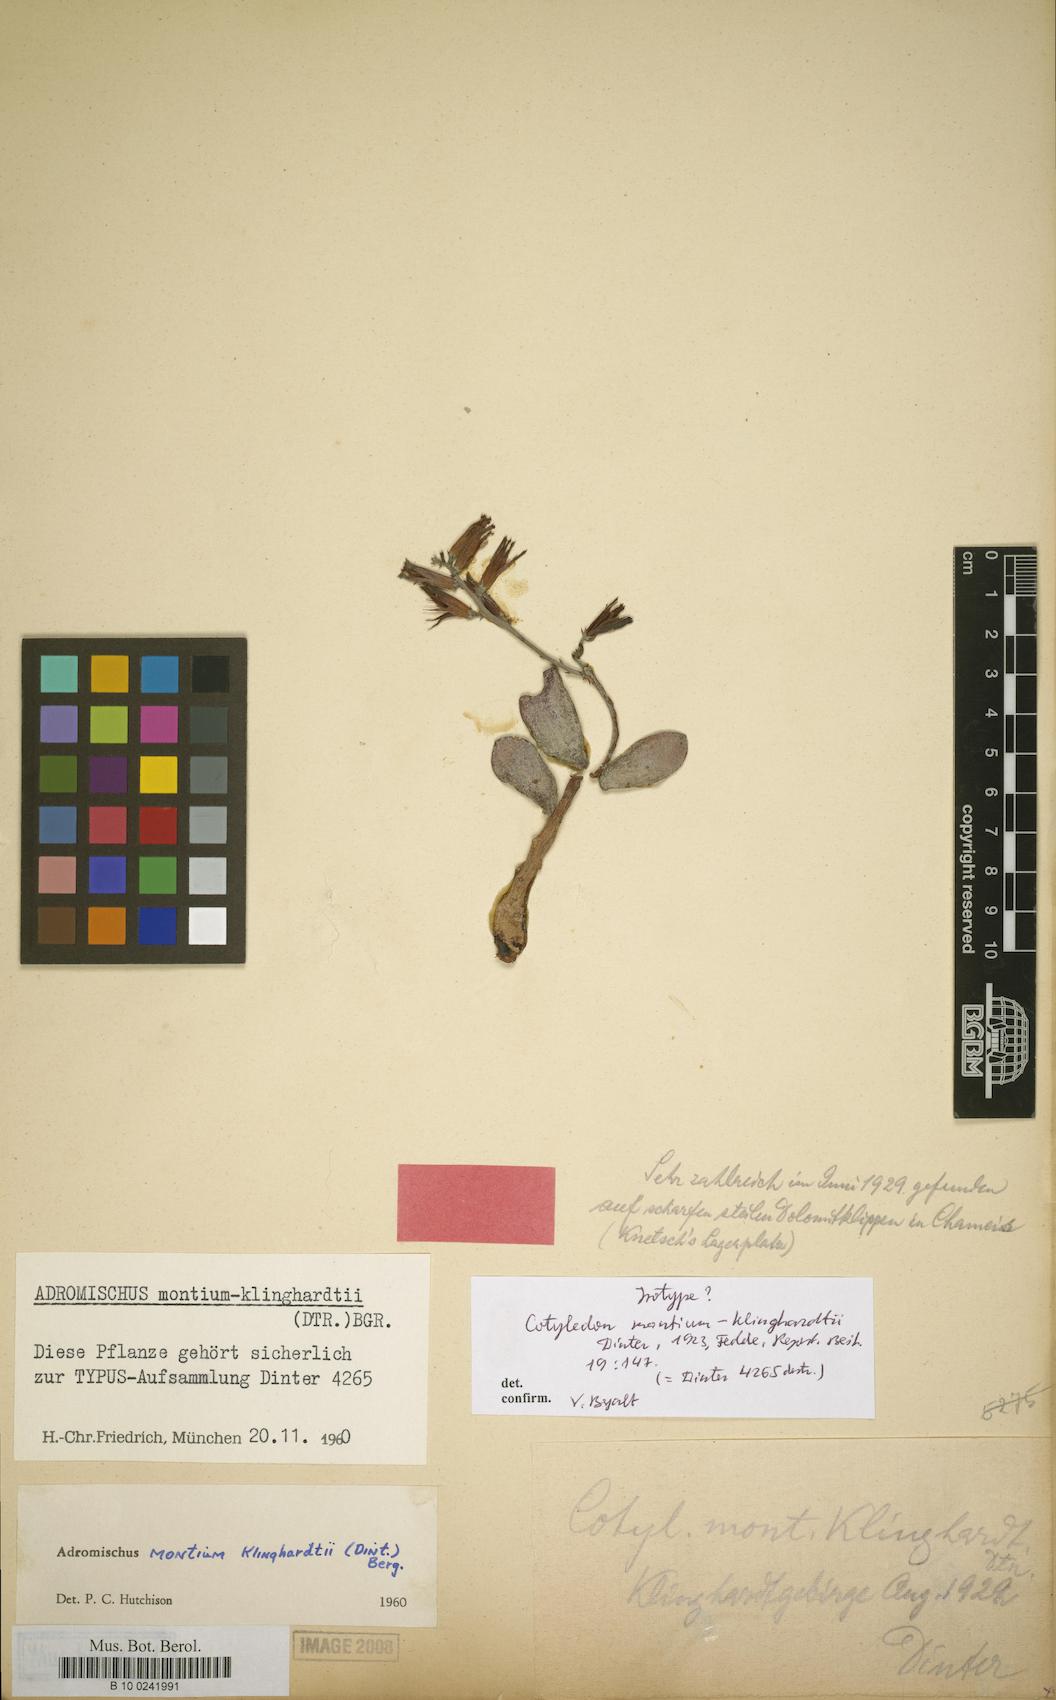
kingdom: Plantae
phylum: Tracheophyta
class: Magnoliopsida
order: Saxifragales
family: Crassulaceae
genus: Adromischus
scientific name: Adromischus montium-klinghardtii
